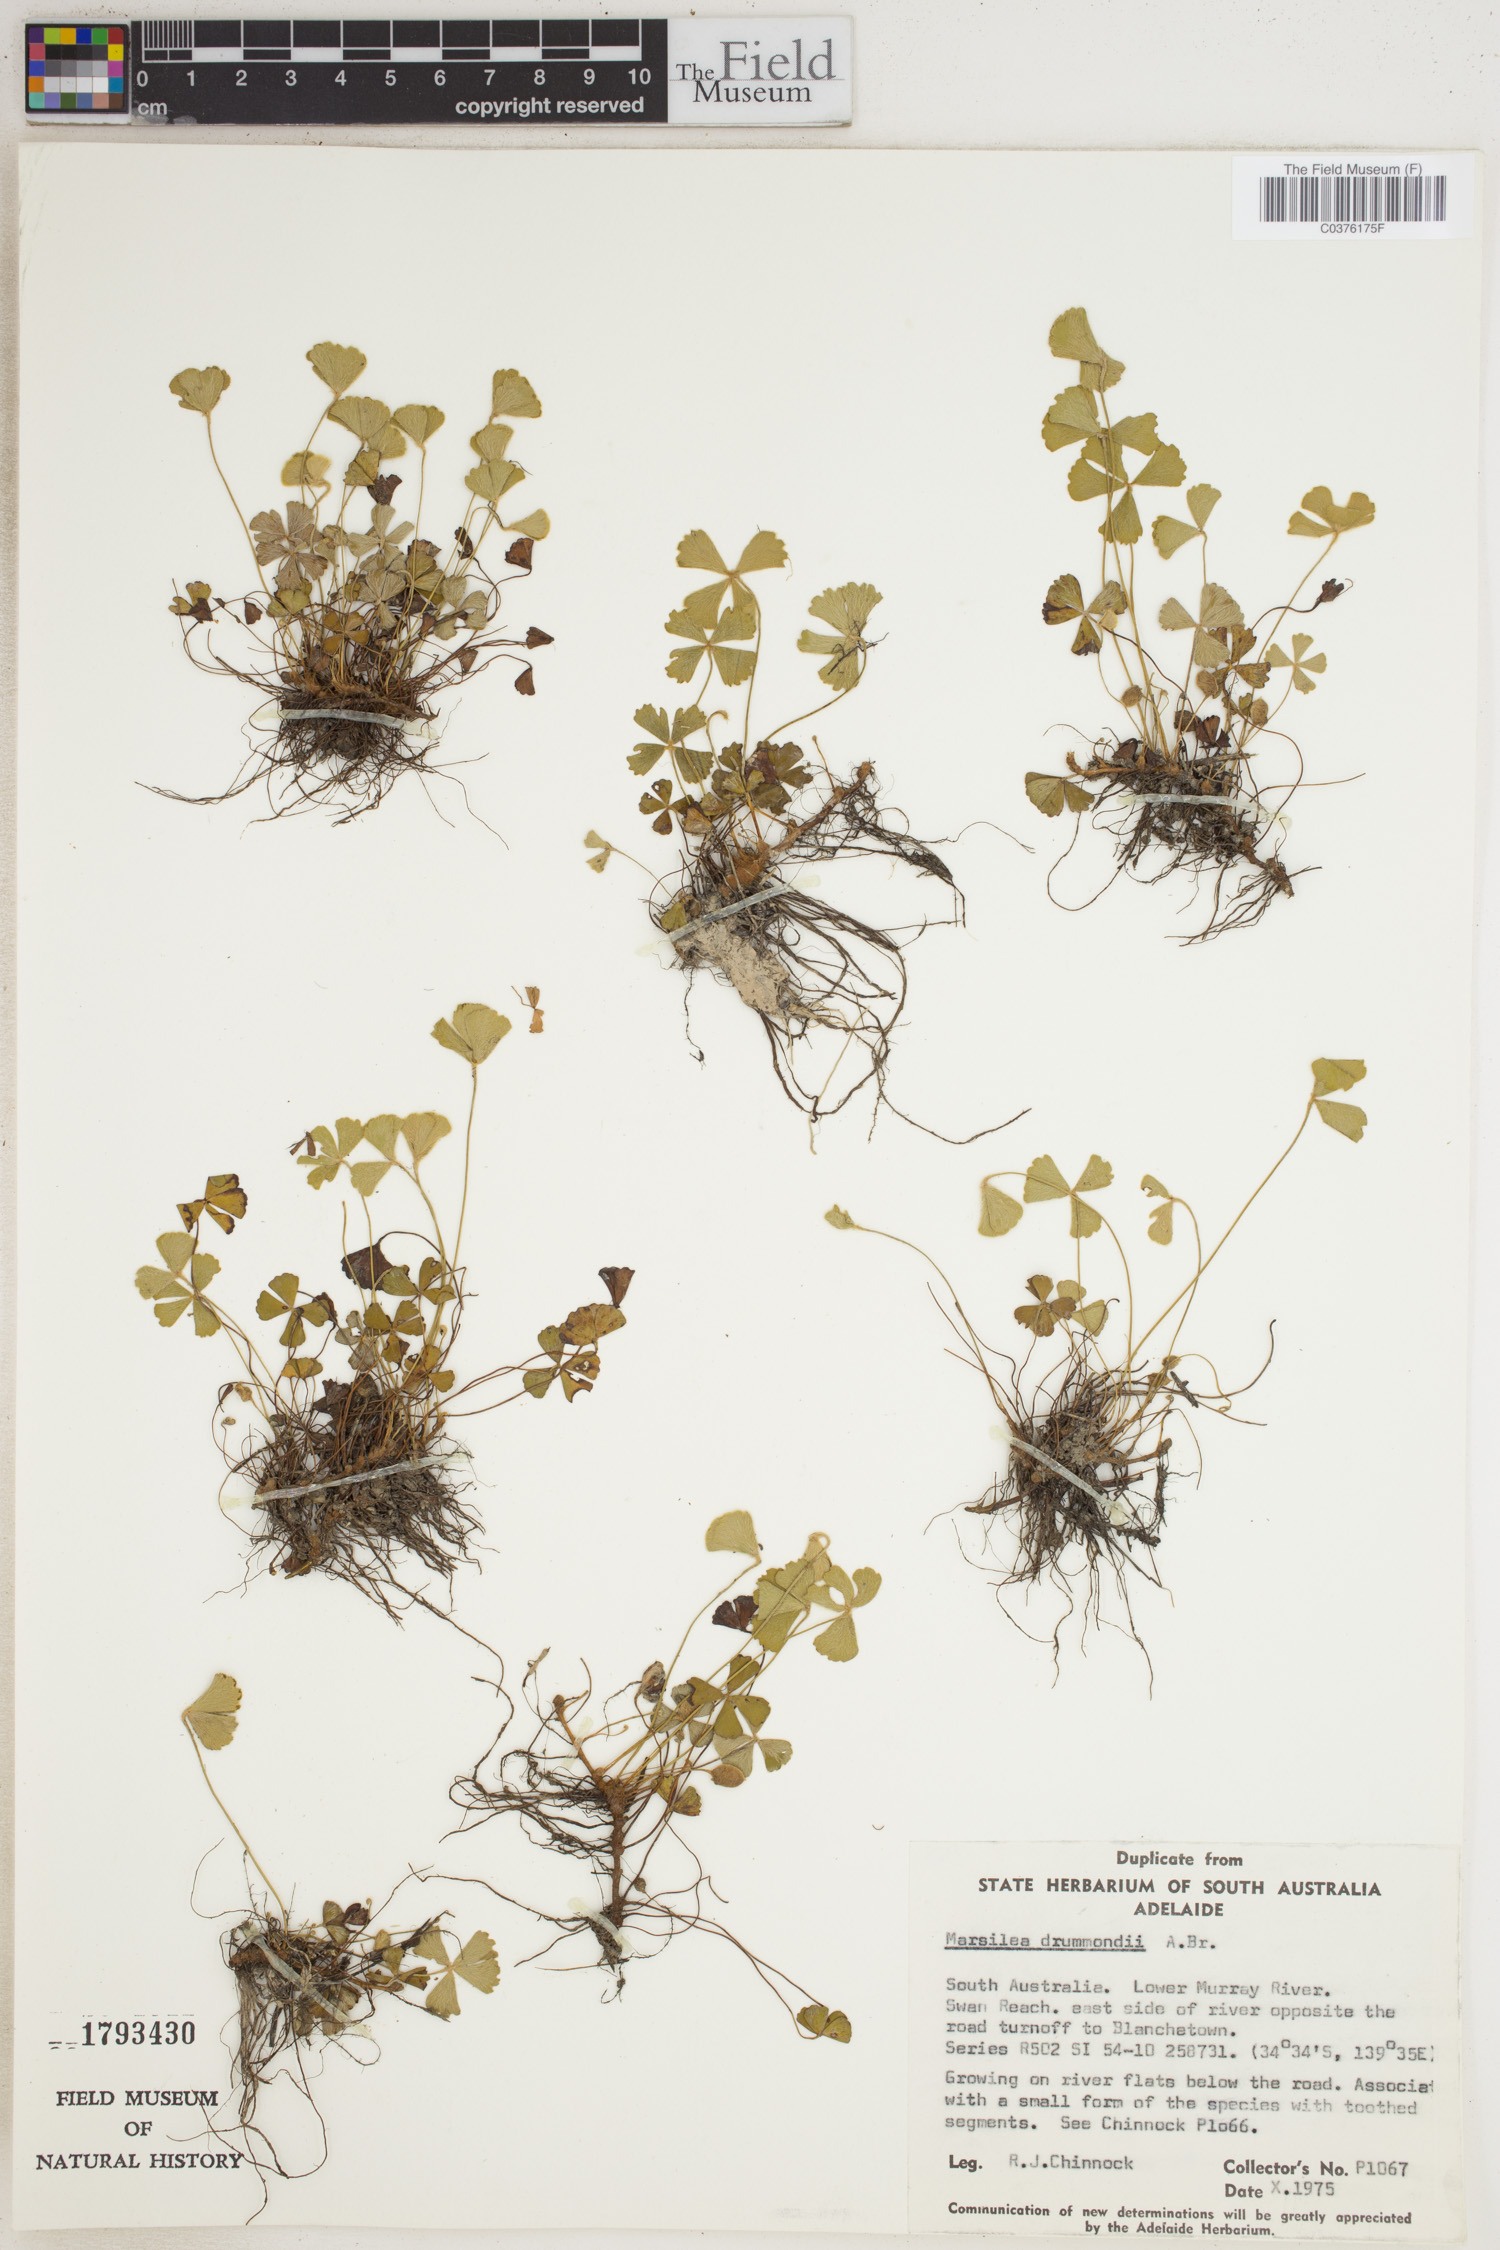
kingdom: Plantae
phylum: Tracheophyta
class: Polypodiopsida
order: Salviniales
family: Marsileaceae
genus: Marsilea
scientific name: Marsilea drummondii
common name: Nardoo
